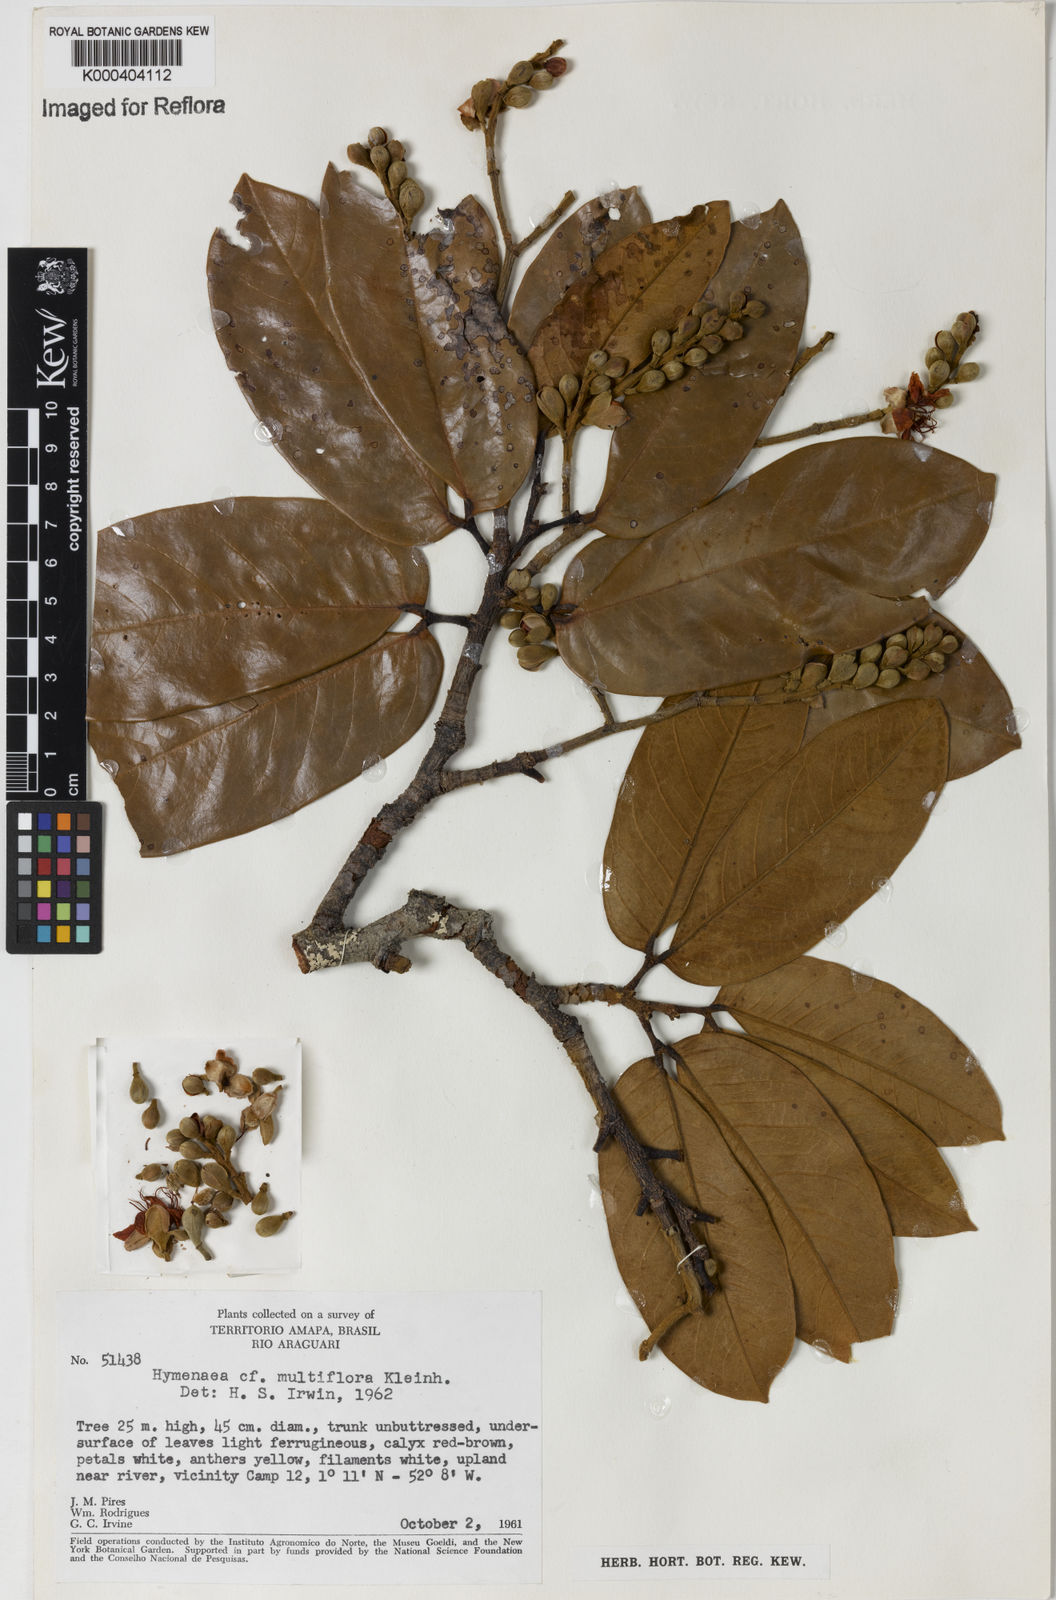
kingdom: Plantae
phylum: Tracheophyta
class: Magnoliopsida
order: Fabales
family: Fabaceae
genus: Hymenaea
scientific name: Hymenaea courbaril
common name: Brazilian copal
